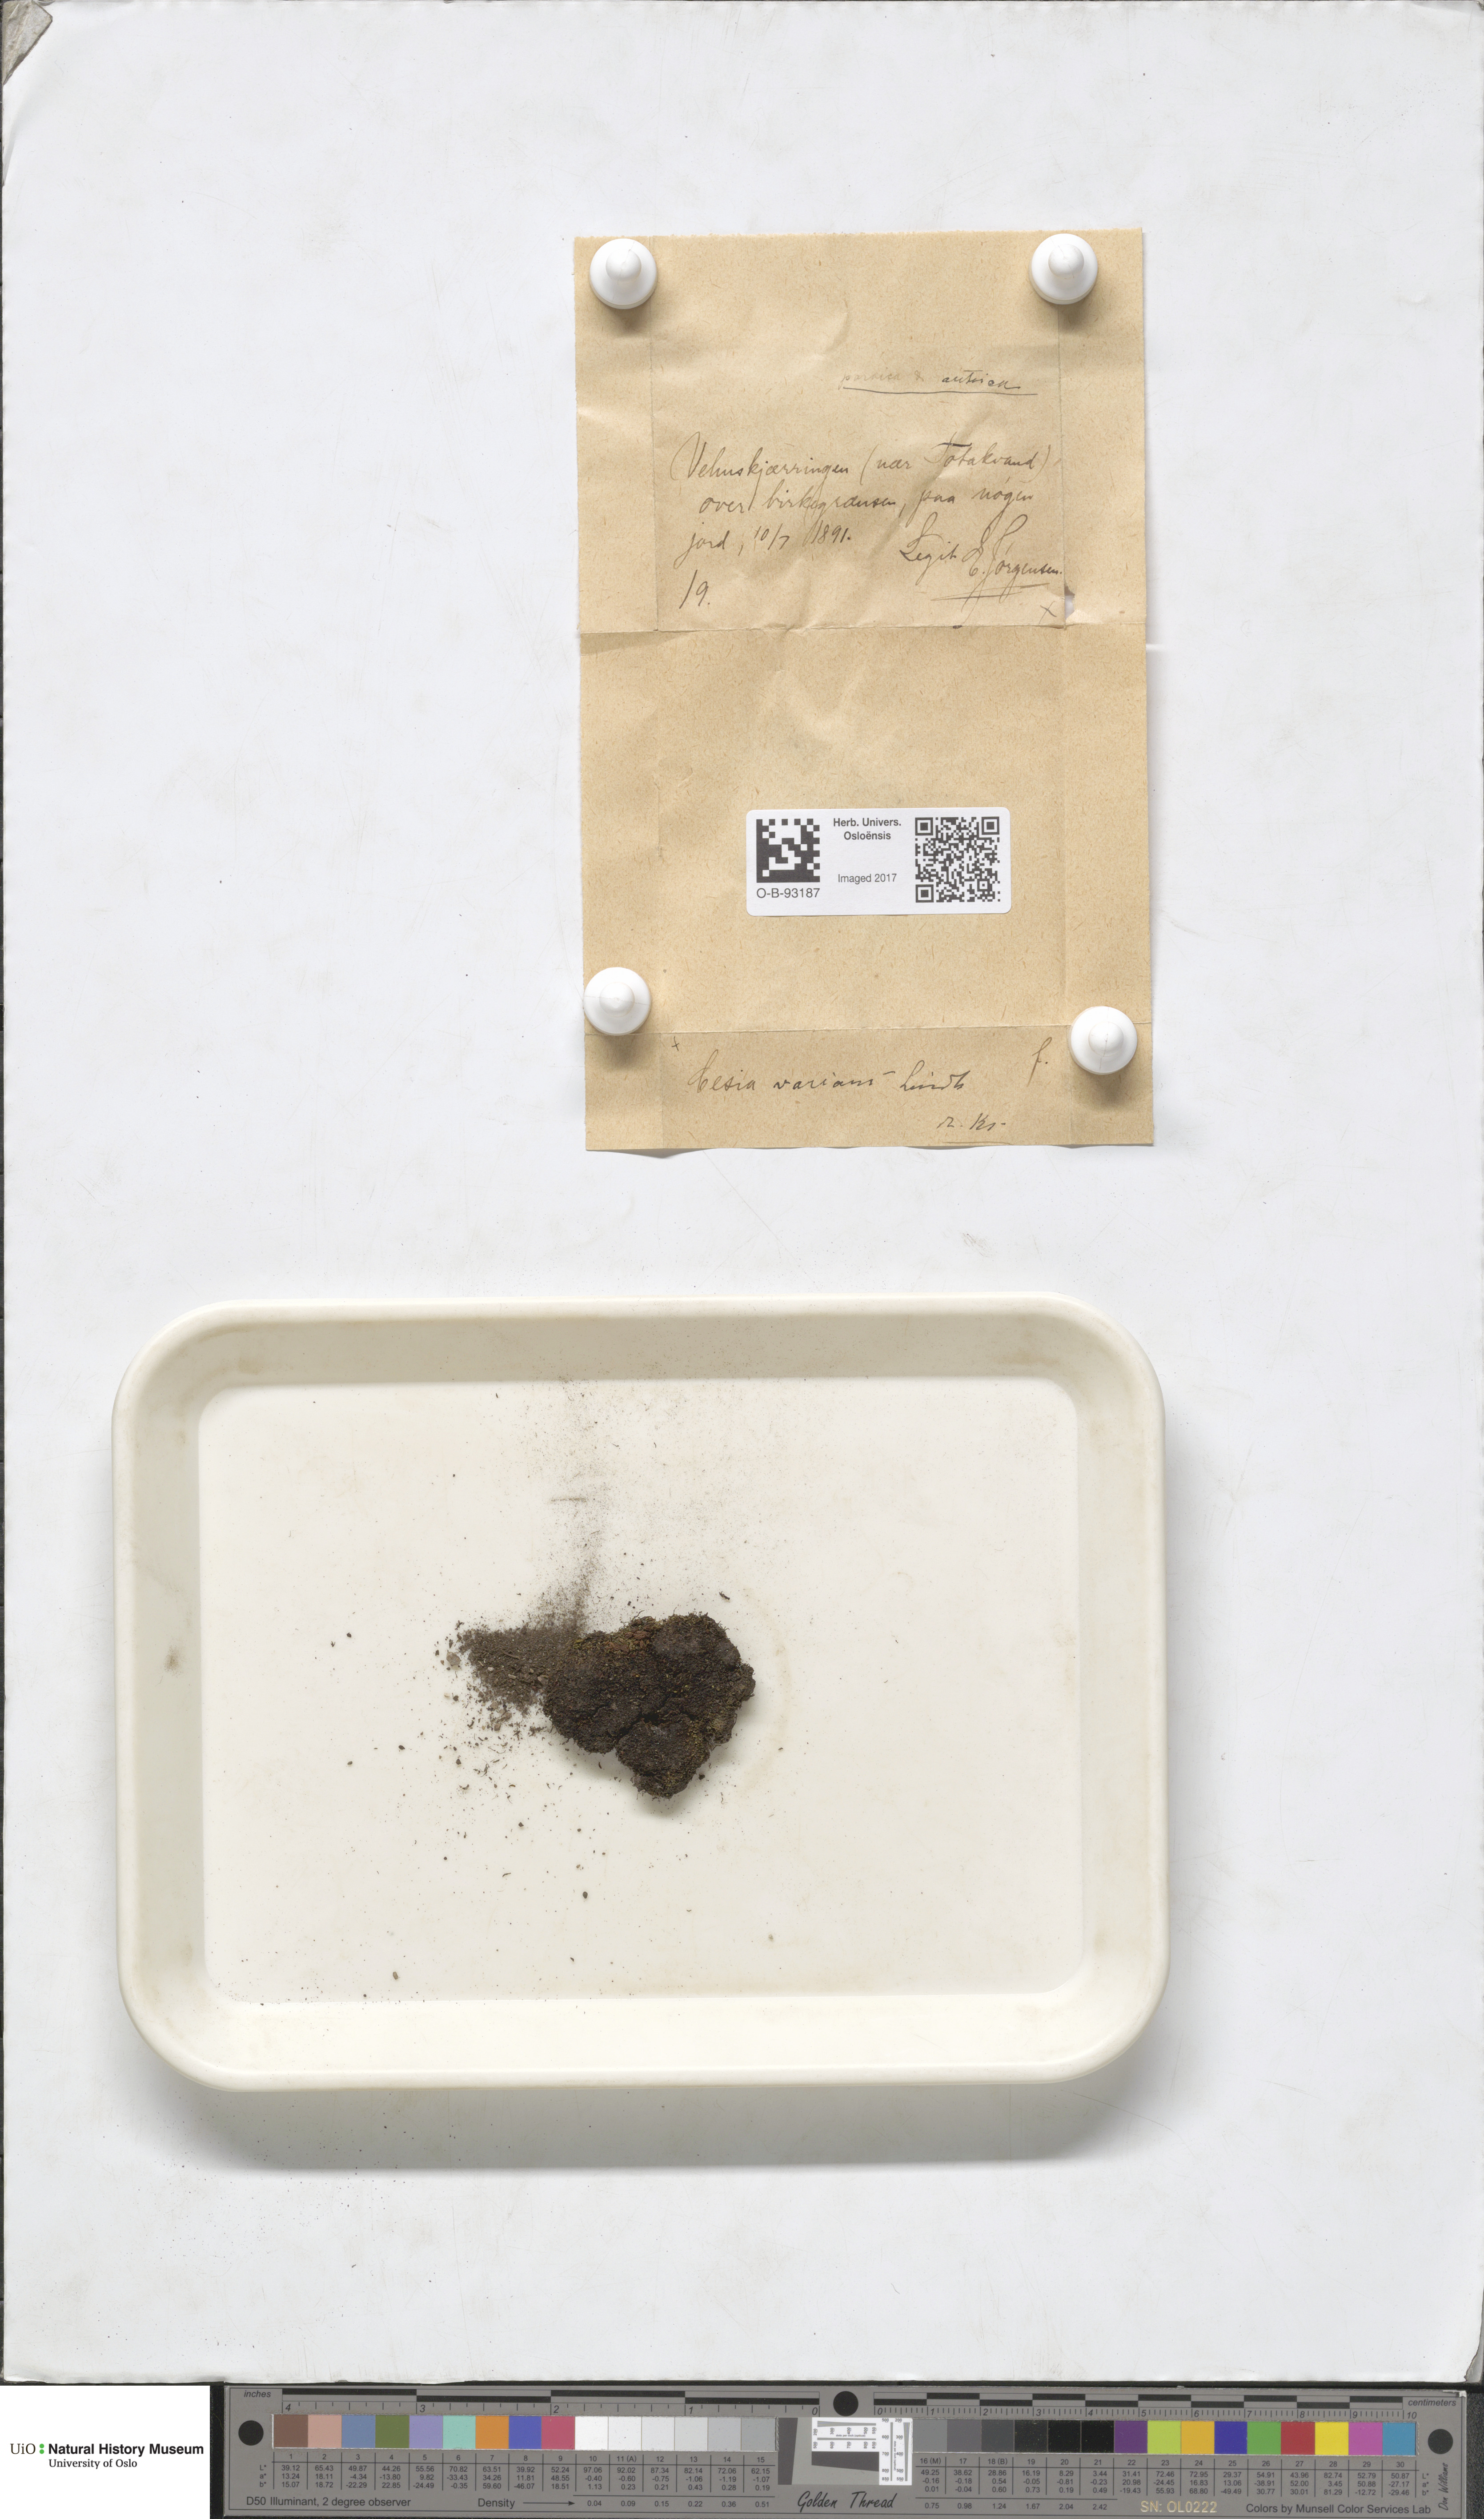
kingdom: Plantae
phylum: Marchantiophyta
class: Jungermanniopsida
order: Jungermanniales
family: Gymnomitriaceae
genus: Gymnomitrion
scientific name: Gymnomitrion brevissimum
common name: Snow rustwort
